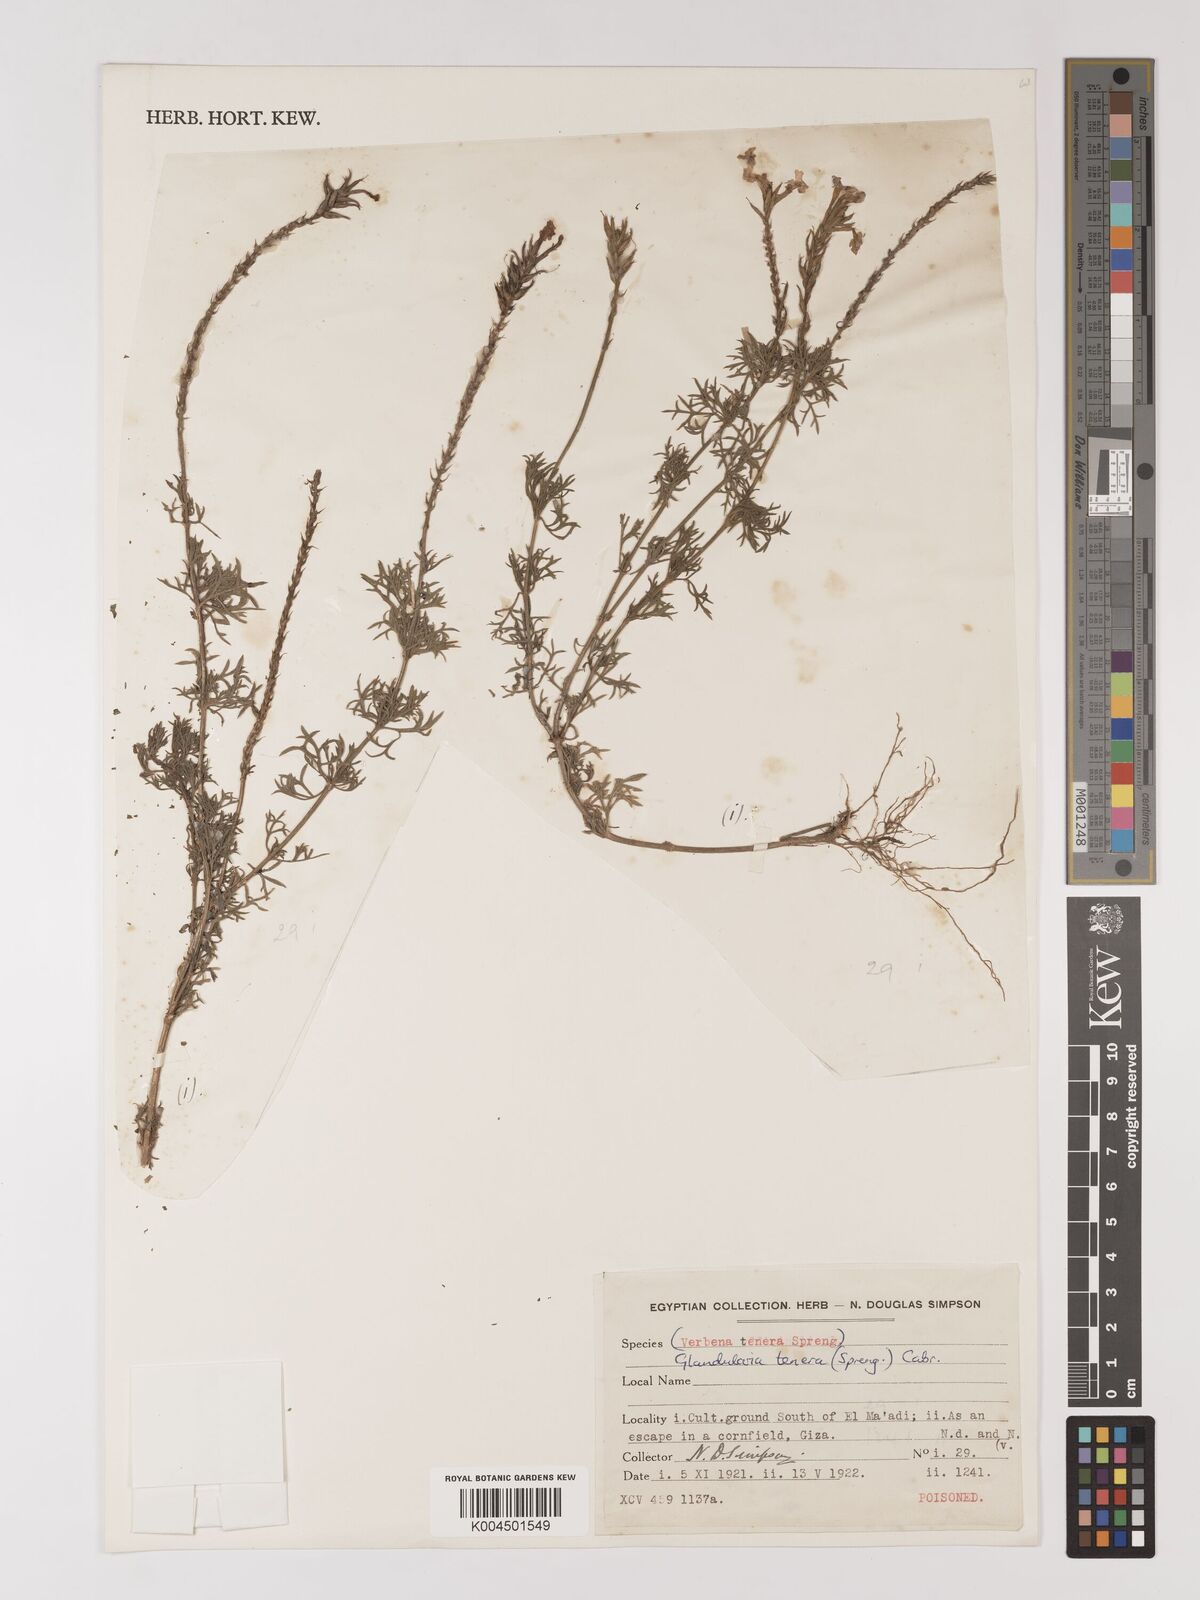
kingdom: Plantae
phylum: Tracheophyta
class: Magnoliopsida
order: Lamiales
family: Verbenaceae
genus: Verbena
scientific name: Verbena tenera
